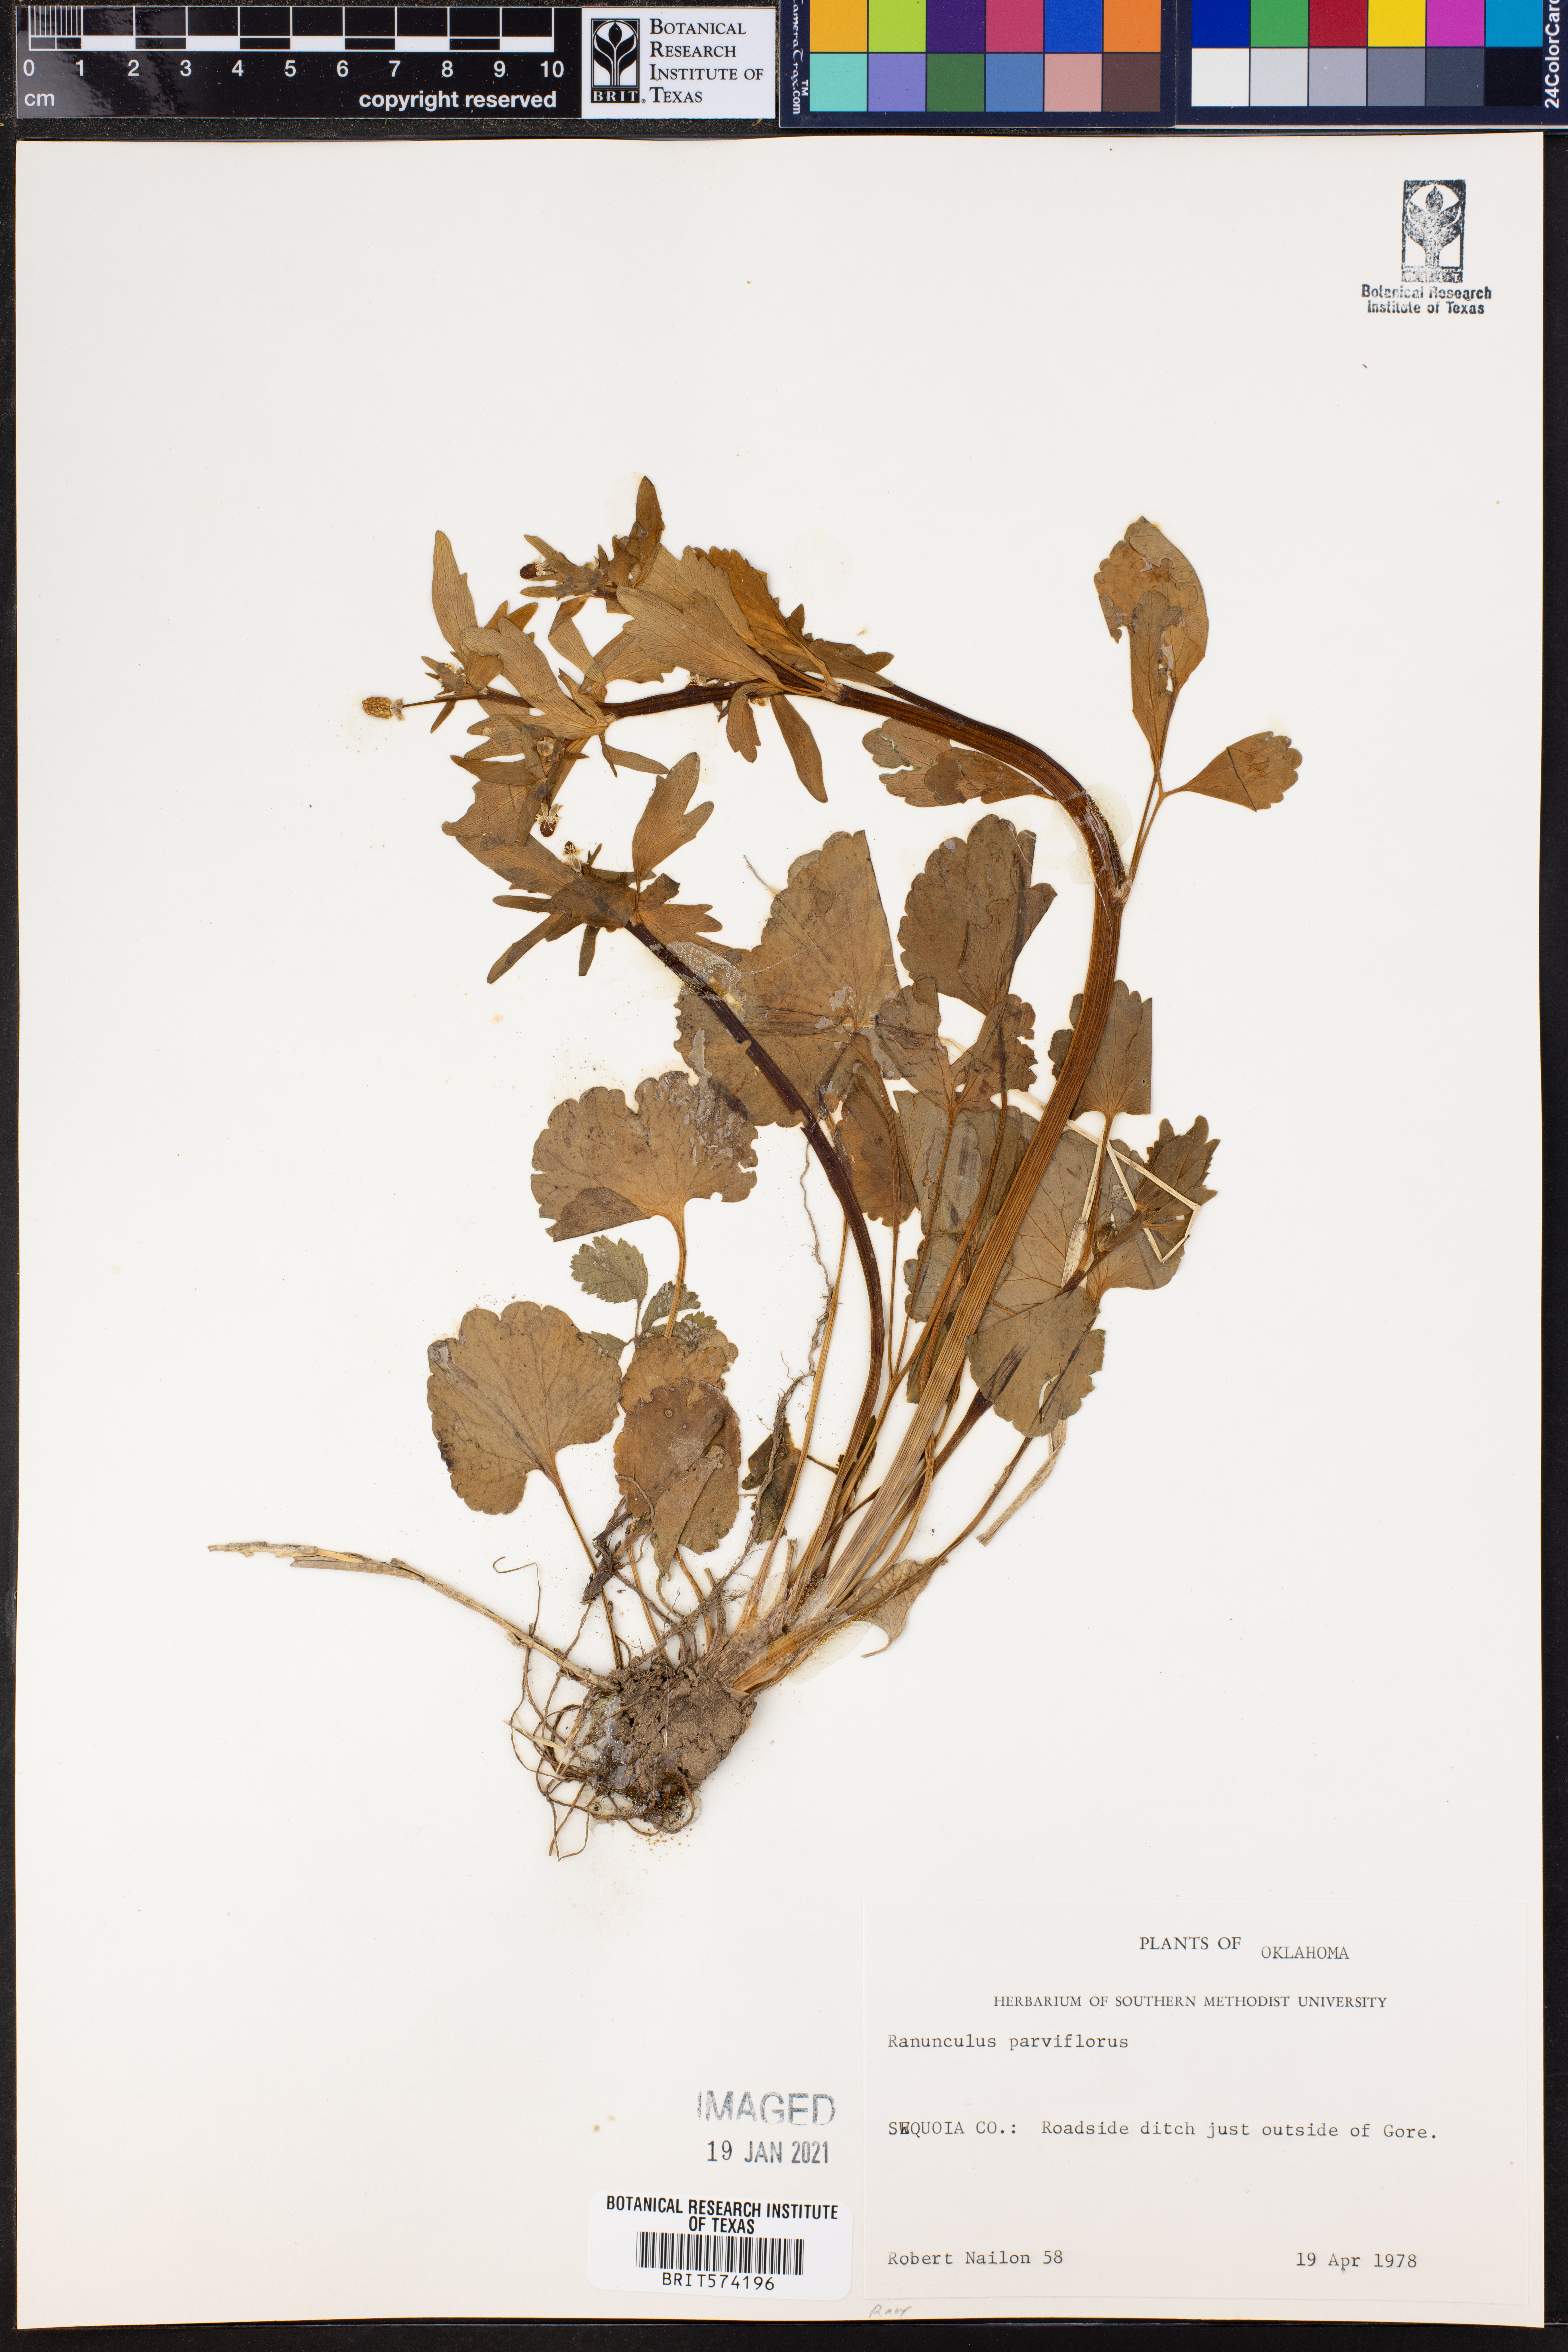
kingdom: Plantae
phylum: Tracheophyta
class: Magnoliopsida
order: Ranunculales
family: Ranunculaceae
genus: Ranunculus
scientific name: Ranunculus parviflorus
